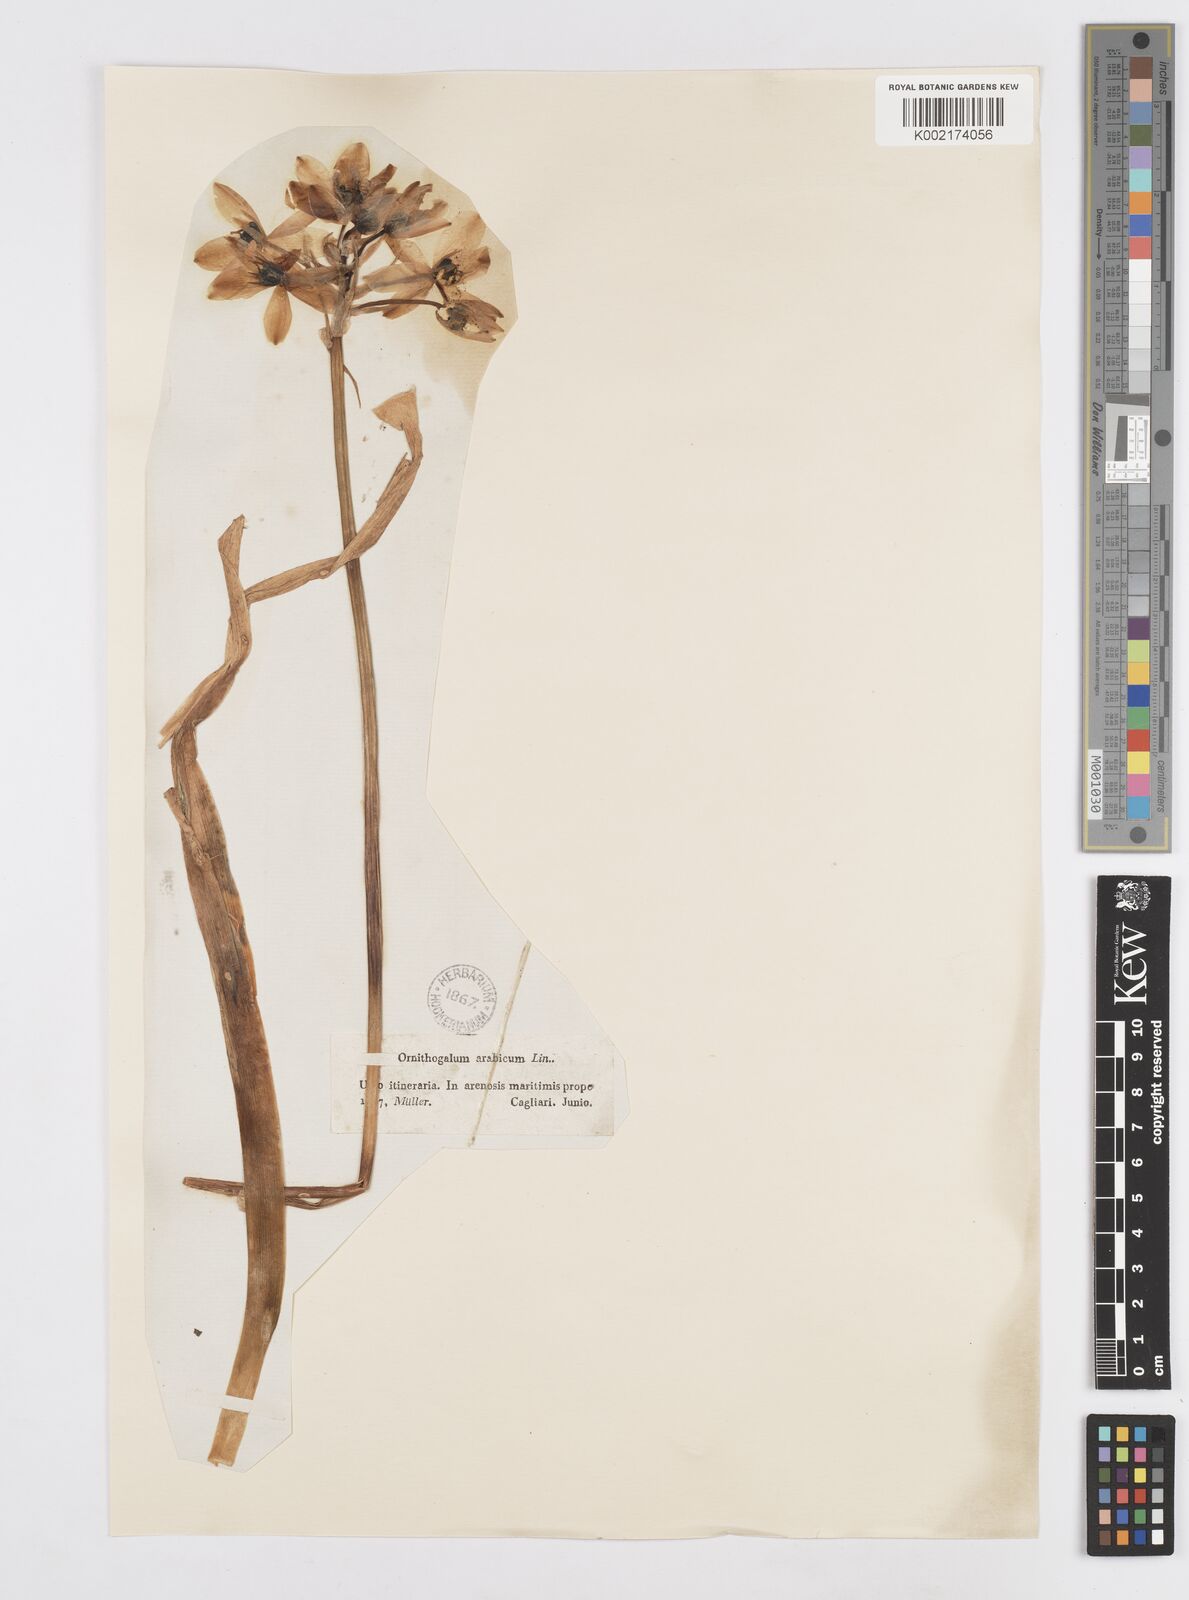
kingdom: Plantae
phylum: Tracheophyta
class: Liliopsida
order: Asparagales
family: Asparagaceae
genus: Ornithogalum
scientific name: Ornithogalum arabicum
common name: Arabian starflower
